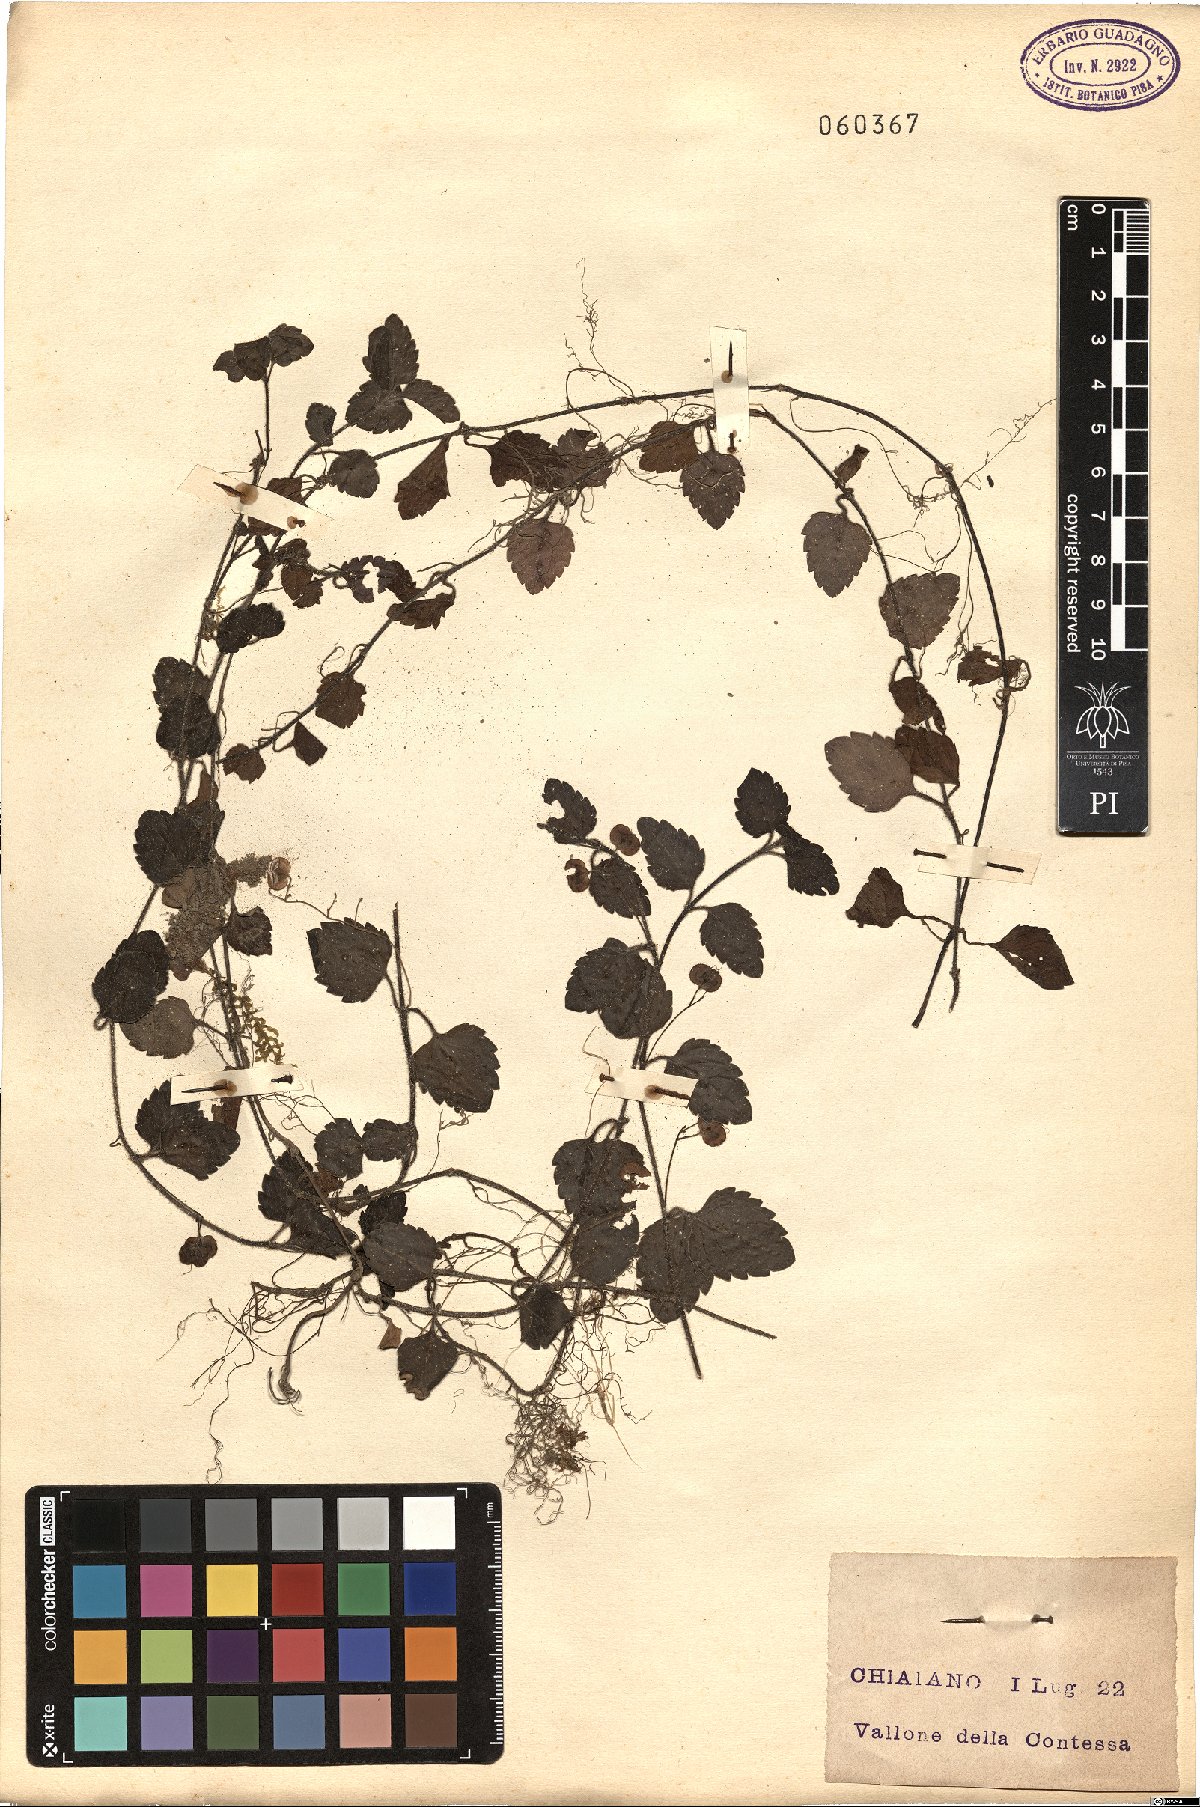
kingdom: Plantae
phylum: Tracheophyta
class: Magnoliopsida
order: Lamiales
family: Plantaginaceae
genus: Veronica
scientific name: Veronica
